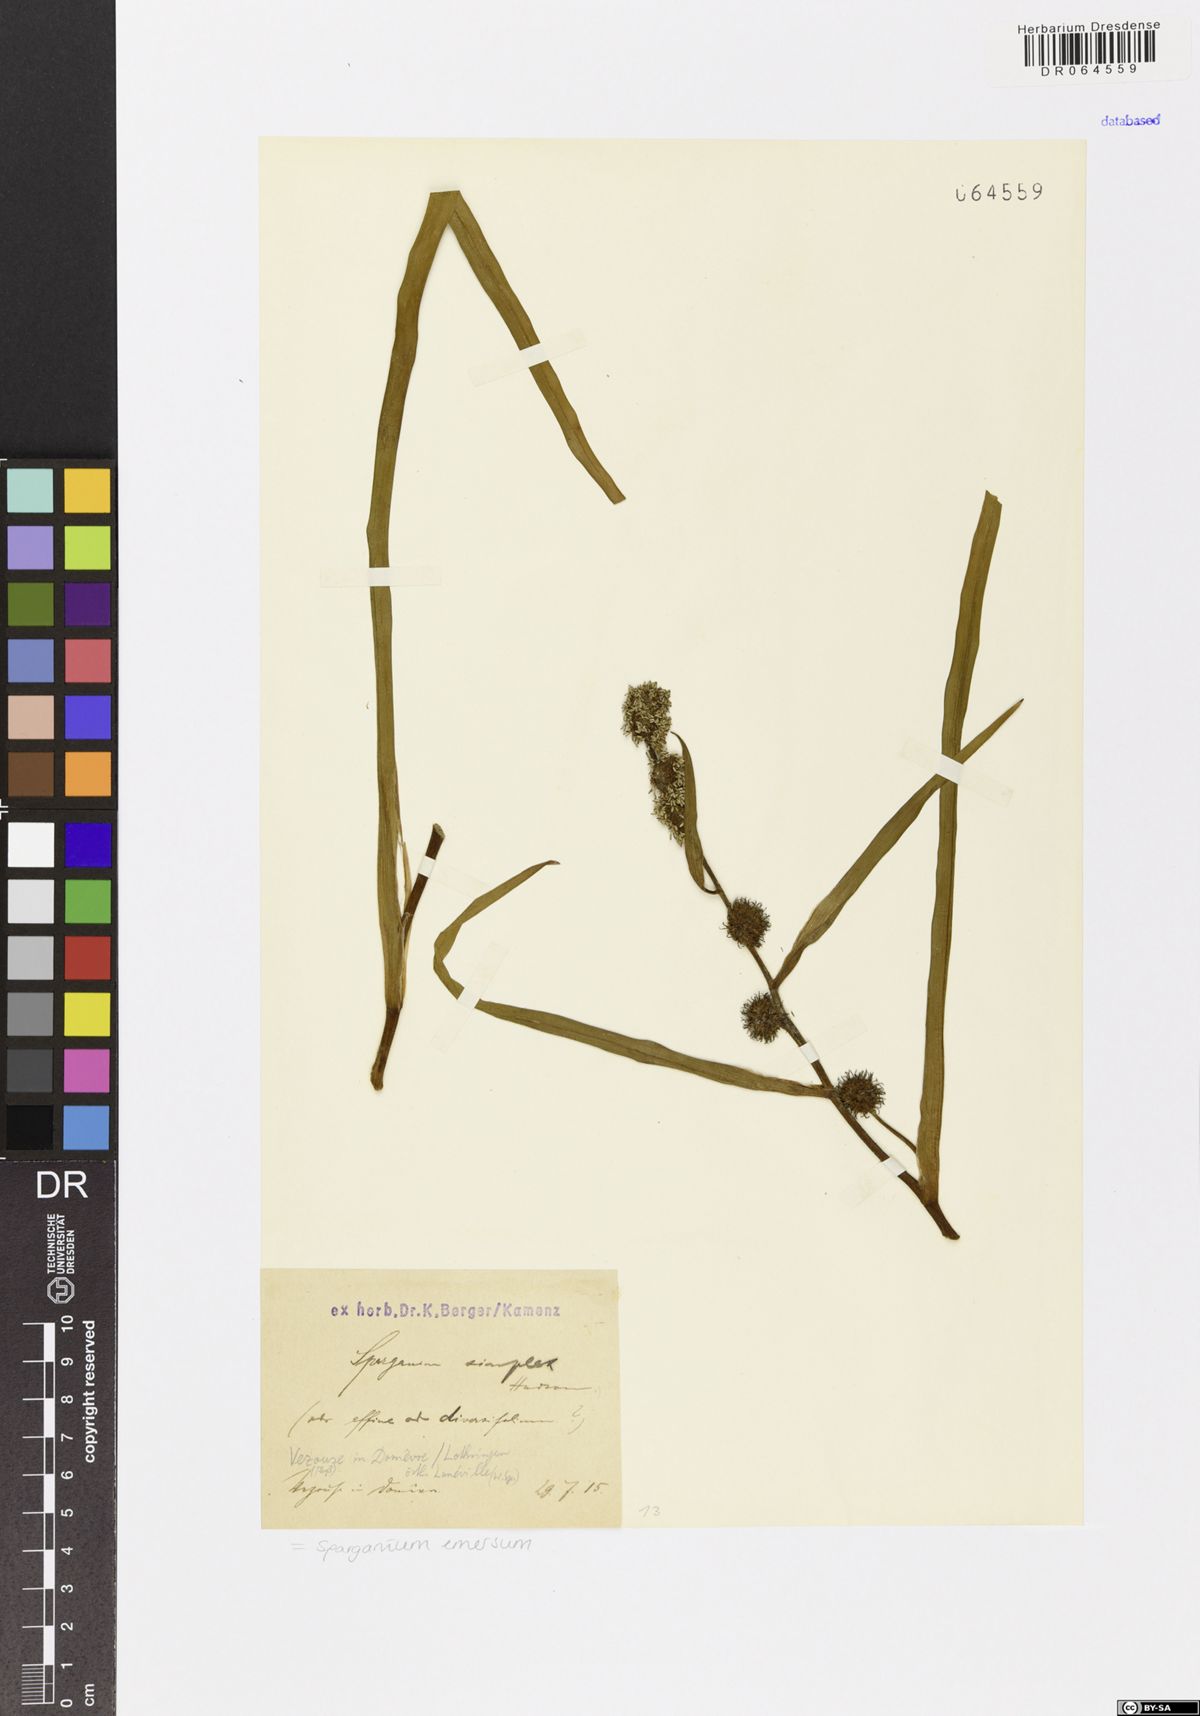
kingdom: Plantae
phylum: Tracheophyta
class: Liliopsida
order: Poales
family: Typhaceae
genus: Sparganium
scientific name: Sparganium emersum
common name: Unbranched bur-reed
